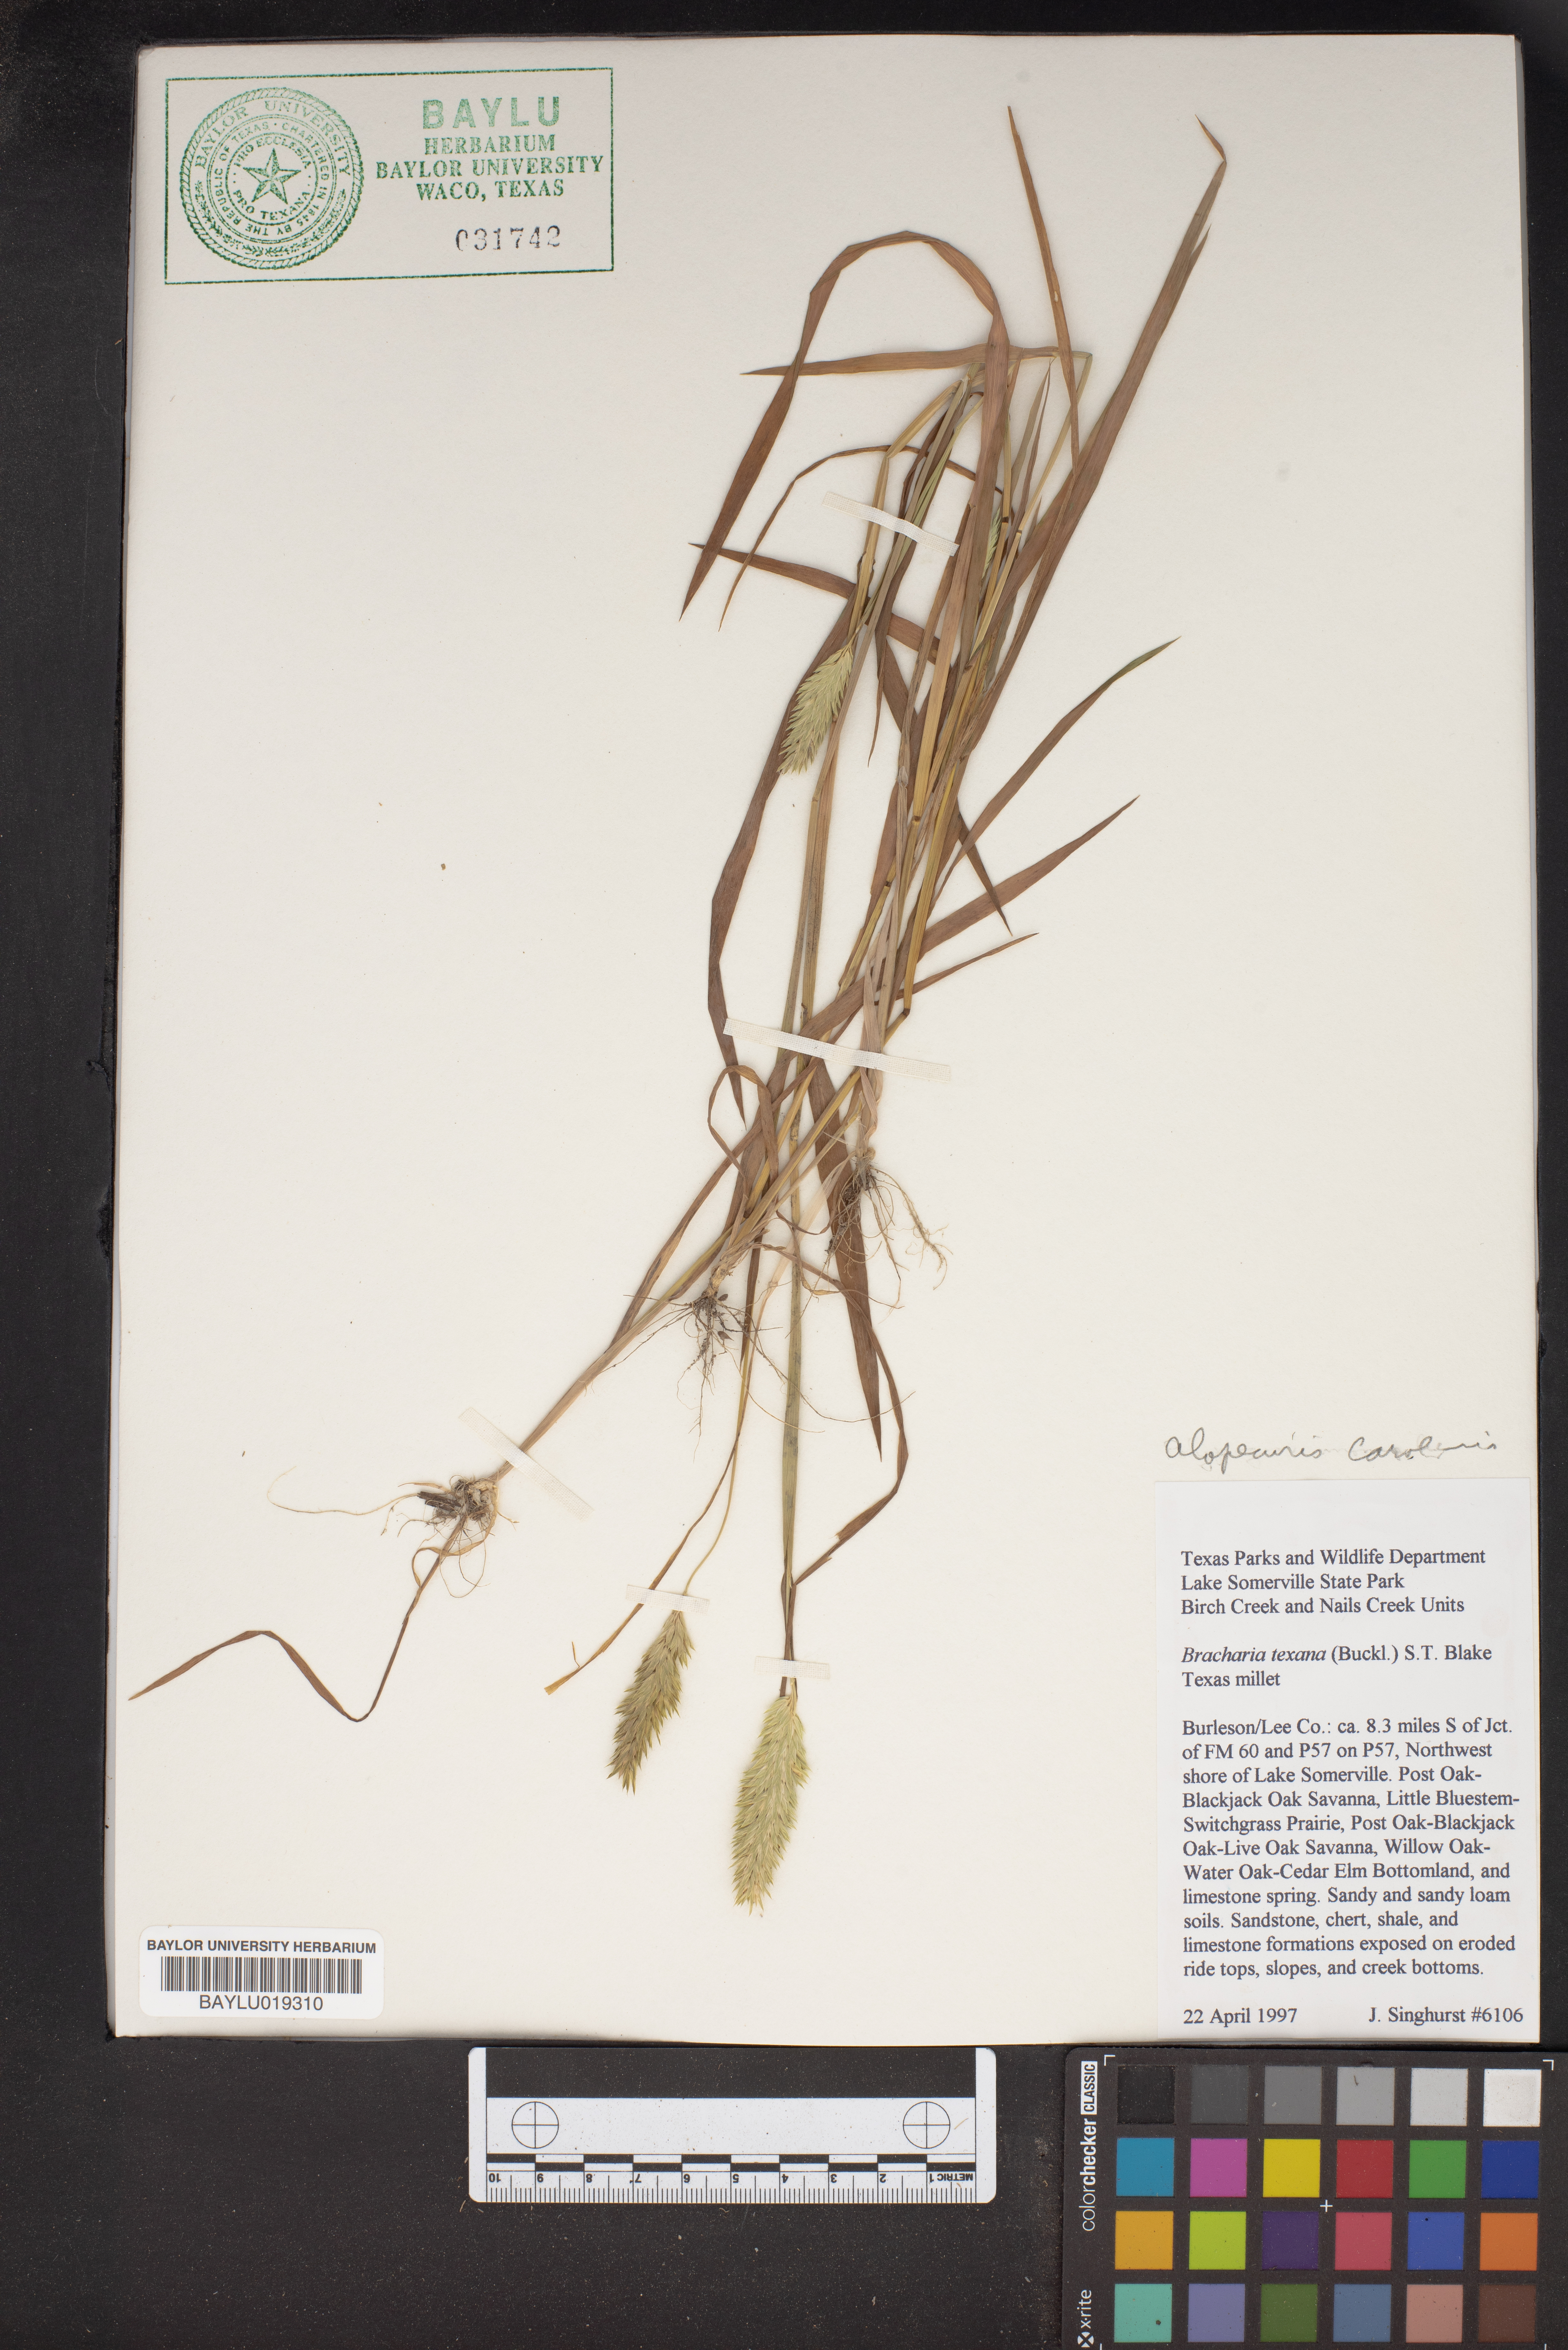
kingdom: Plantae
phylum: Tracheophyta
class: Liliopsida
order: Poales
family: Poaceae
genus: Urochloa
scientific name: Urochloa texana
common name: Texas millet
